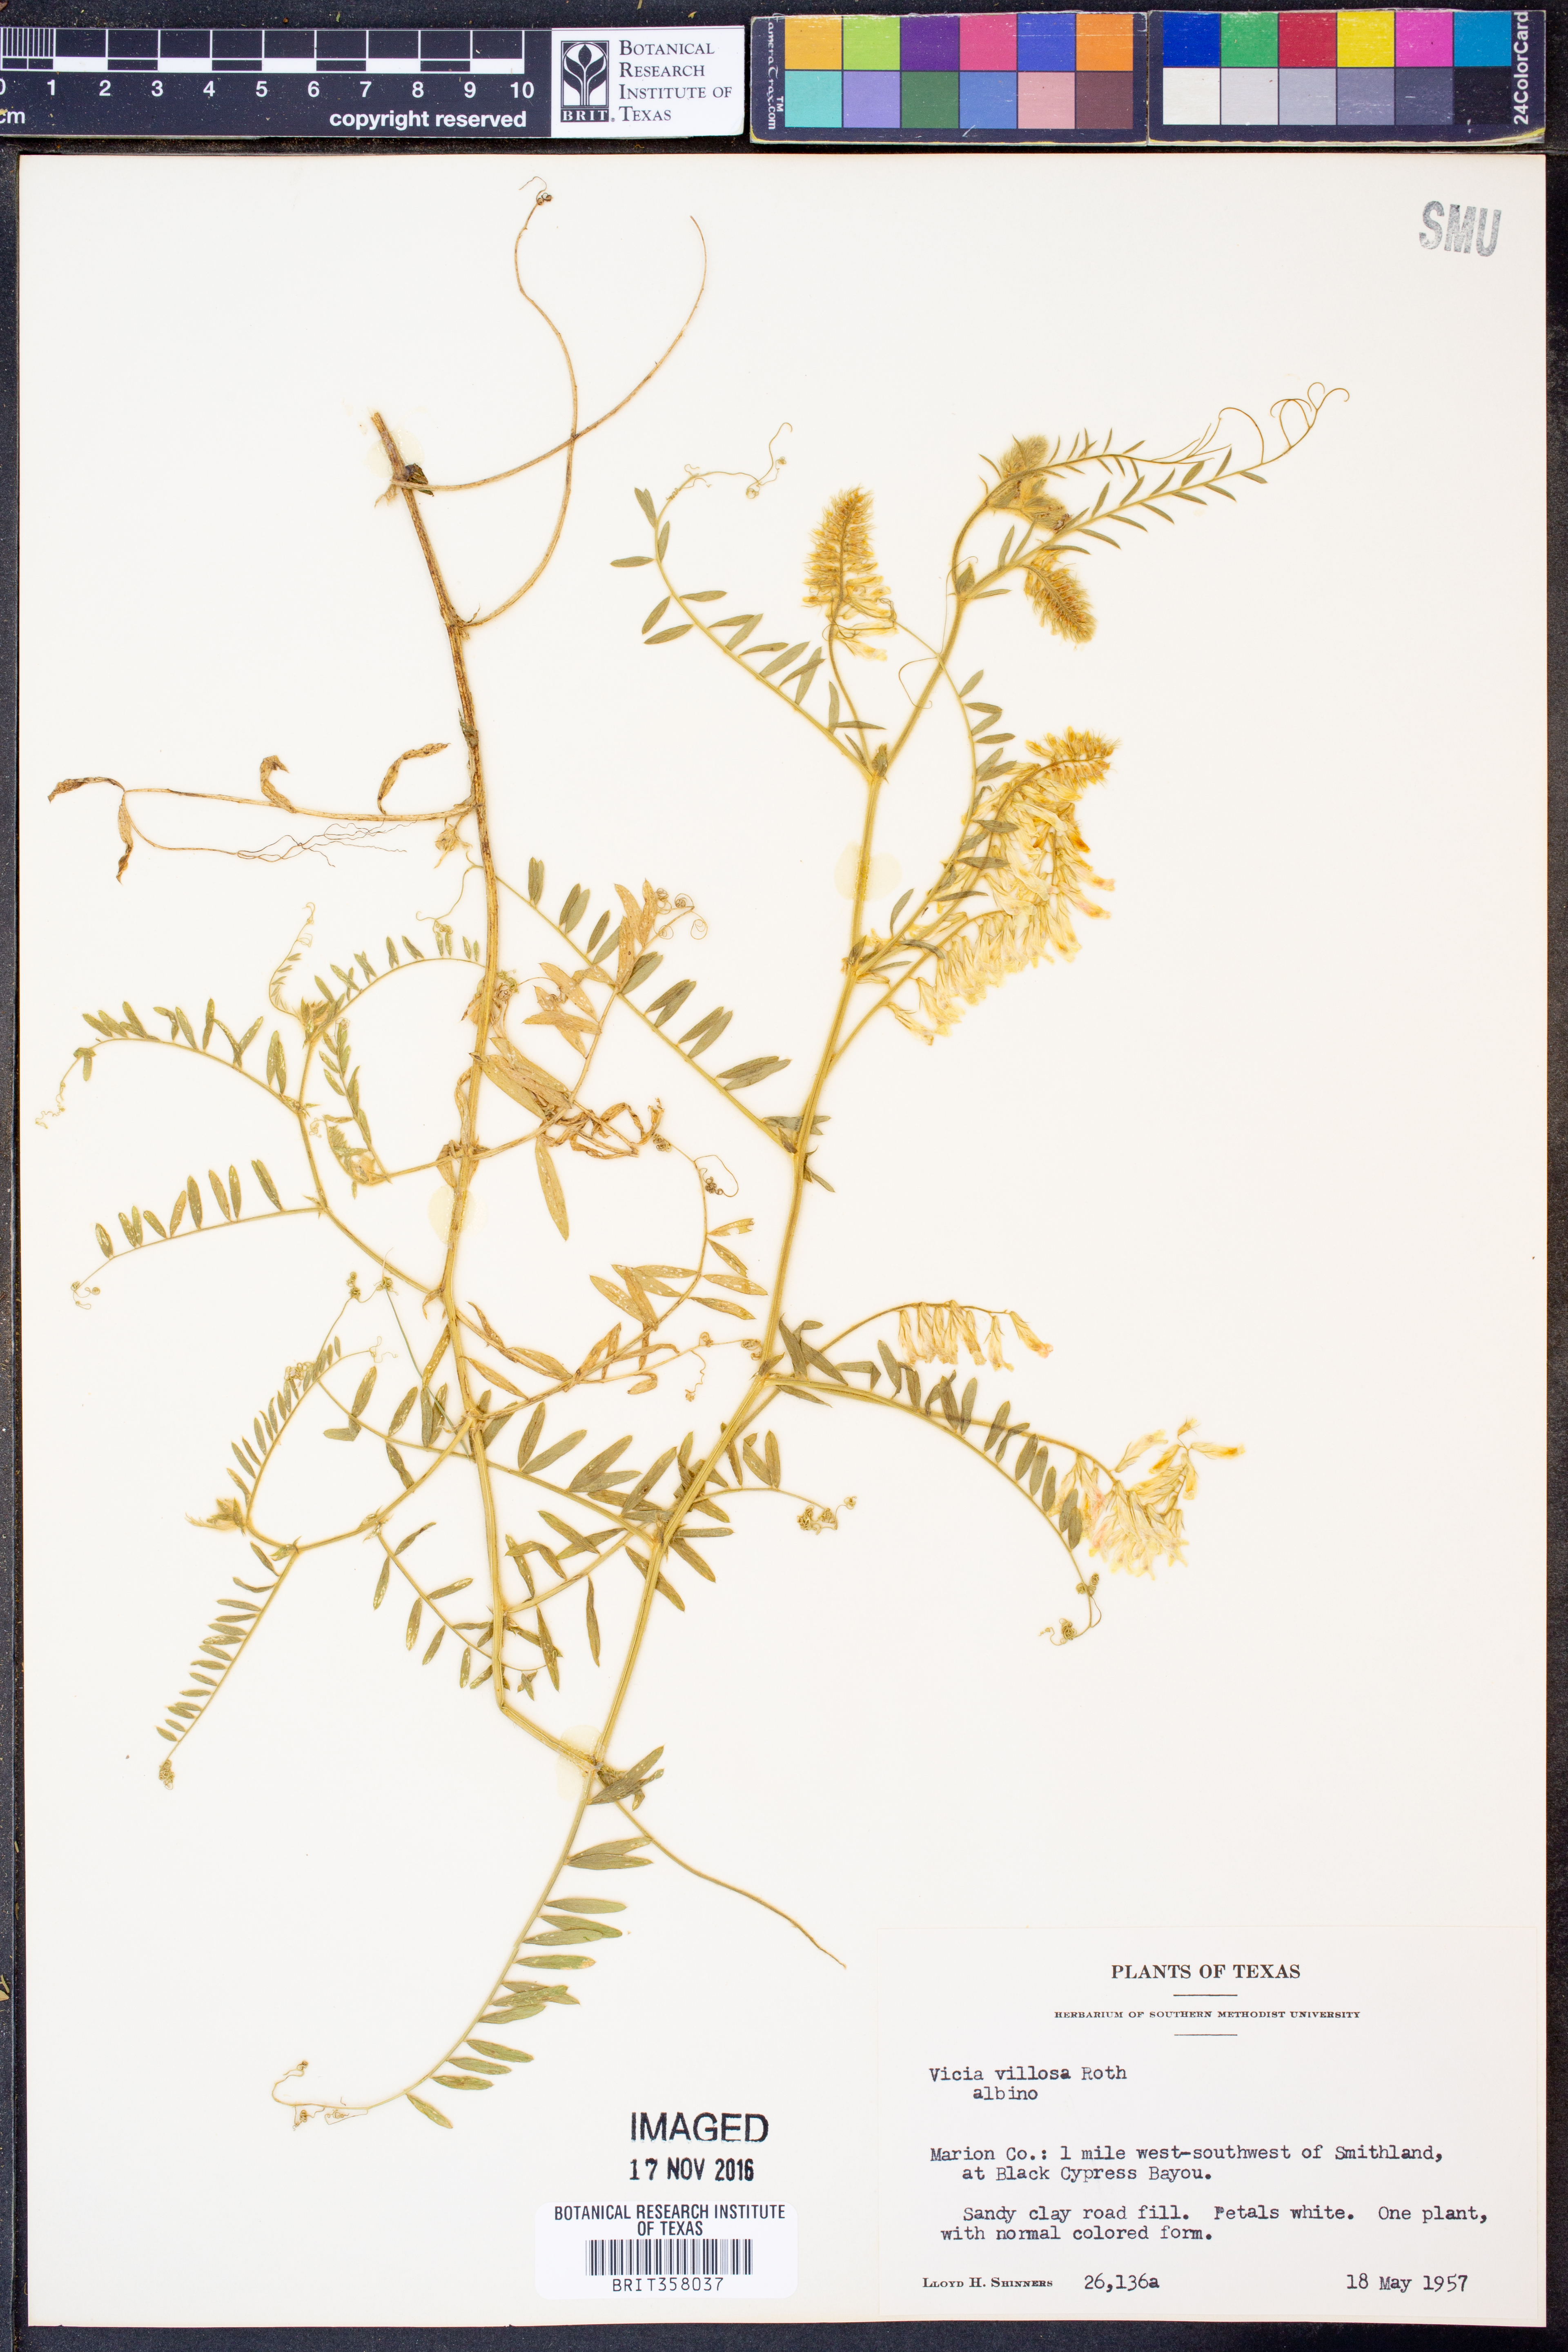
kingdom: Plantae
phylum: Tracheophyta
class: Magnoliopsida
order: Fabales
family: Fabaceae
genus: Vicia
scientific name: Vicia villosa
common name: Fodder vetch
